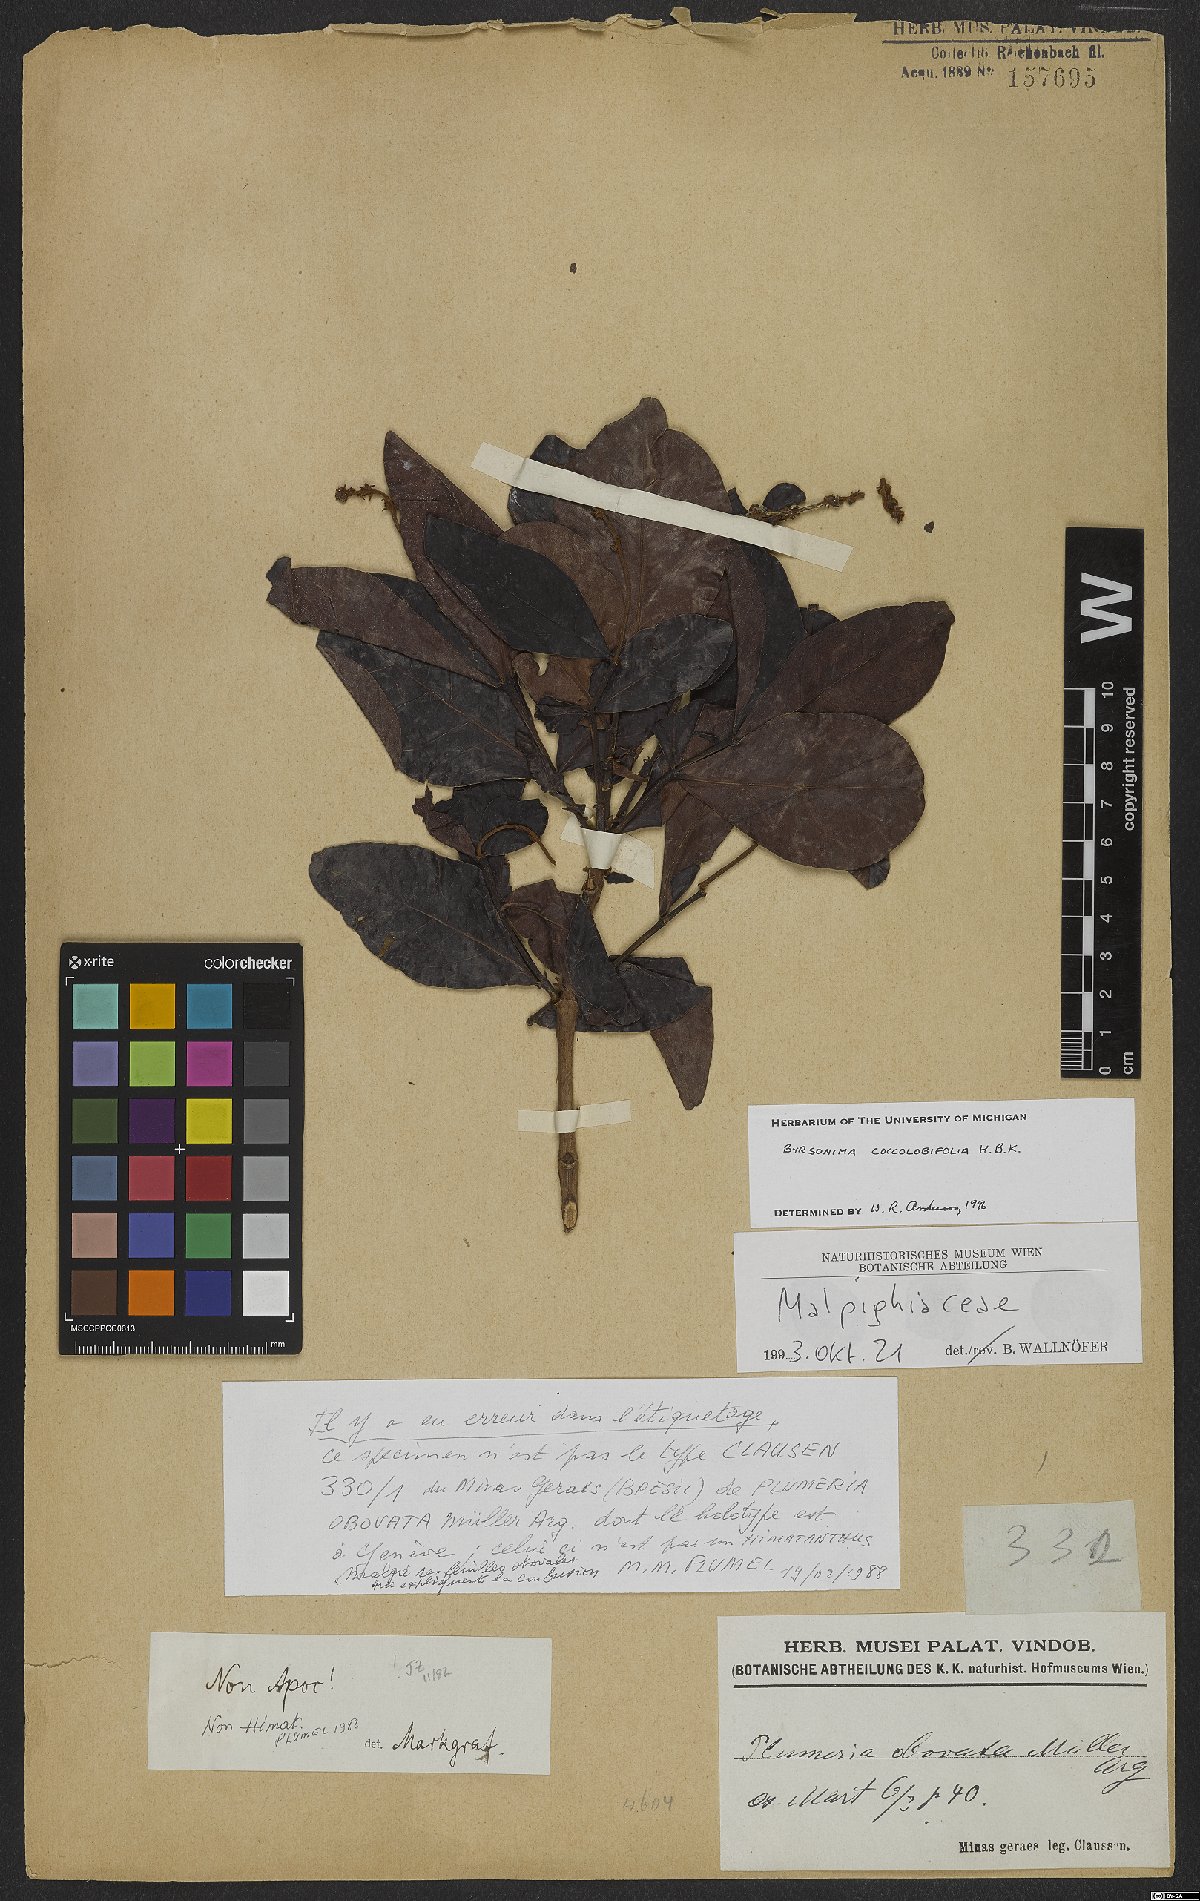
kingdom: Plantae
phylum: Tracheophyta
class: Magnoliopsida
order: Malpighiales
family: Malpighiaceae
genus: Byrsonima
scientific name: Byrsonima coccolobifolia
